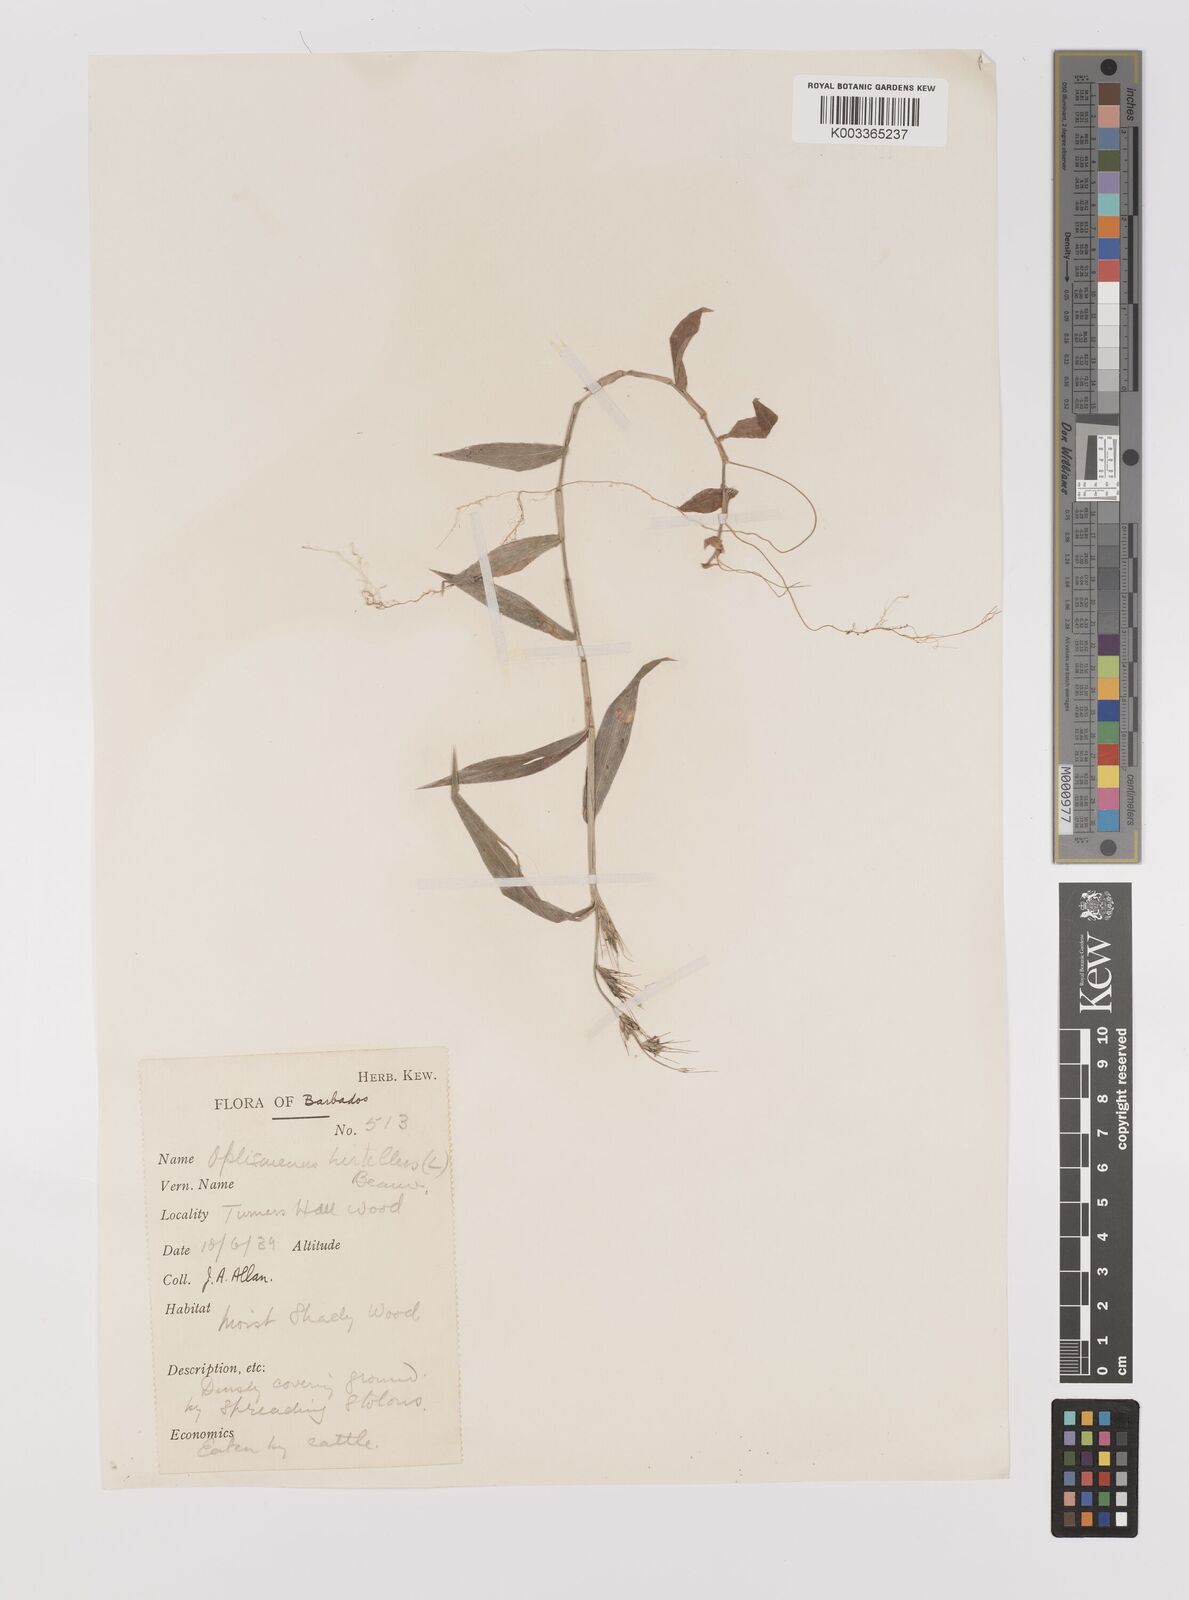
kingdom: Plantae
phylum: Tracheophyta
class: Liliopsida
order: Poales
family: Poaceae
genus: Oplismenus
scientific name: Oplismenus hirtellus
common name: Basketgrass
